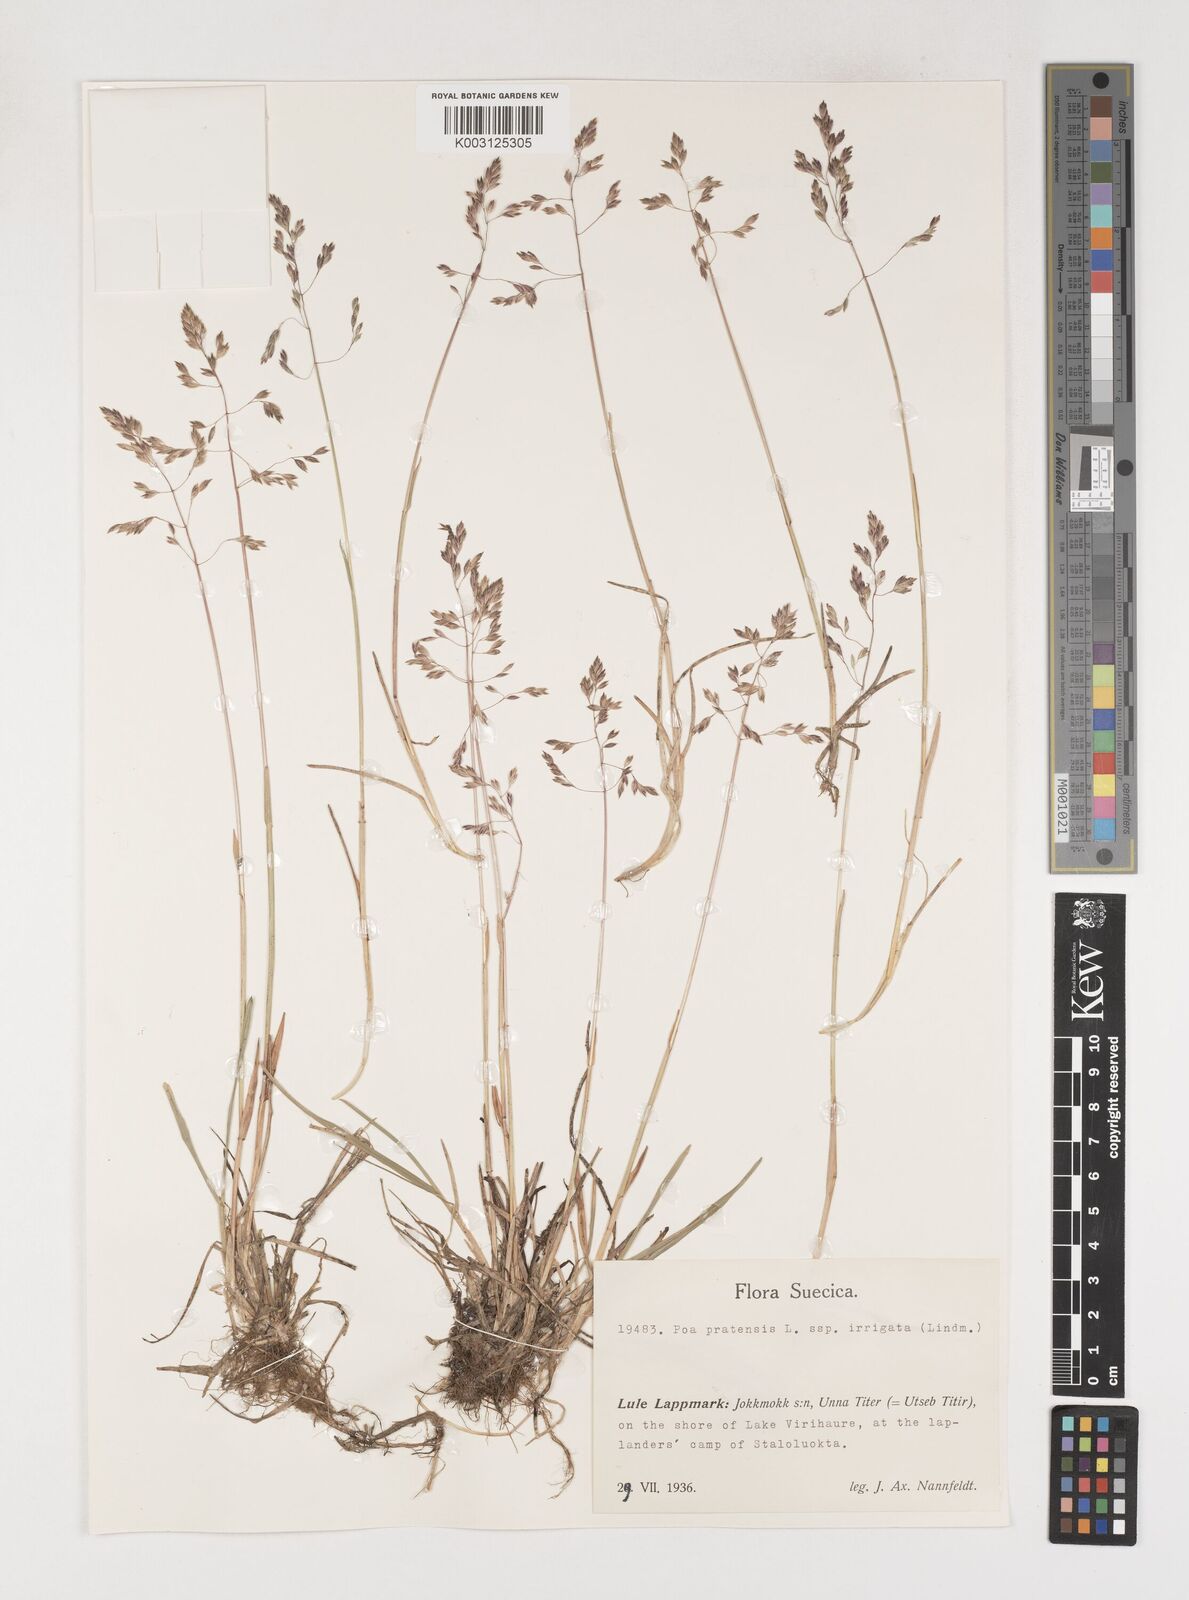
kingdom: Plantae
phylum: Tracheophyta
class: Liliopsida
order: Poales
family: Poaceae
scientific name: Poaceae
